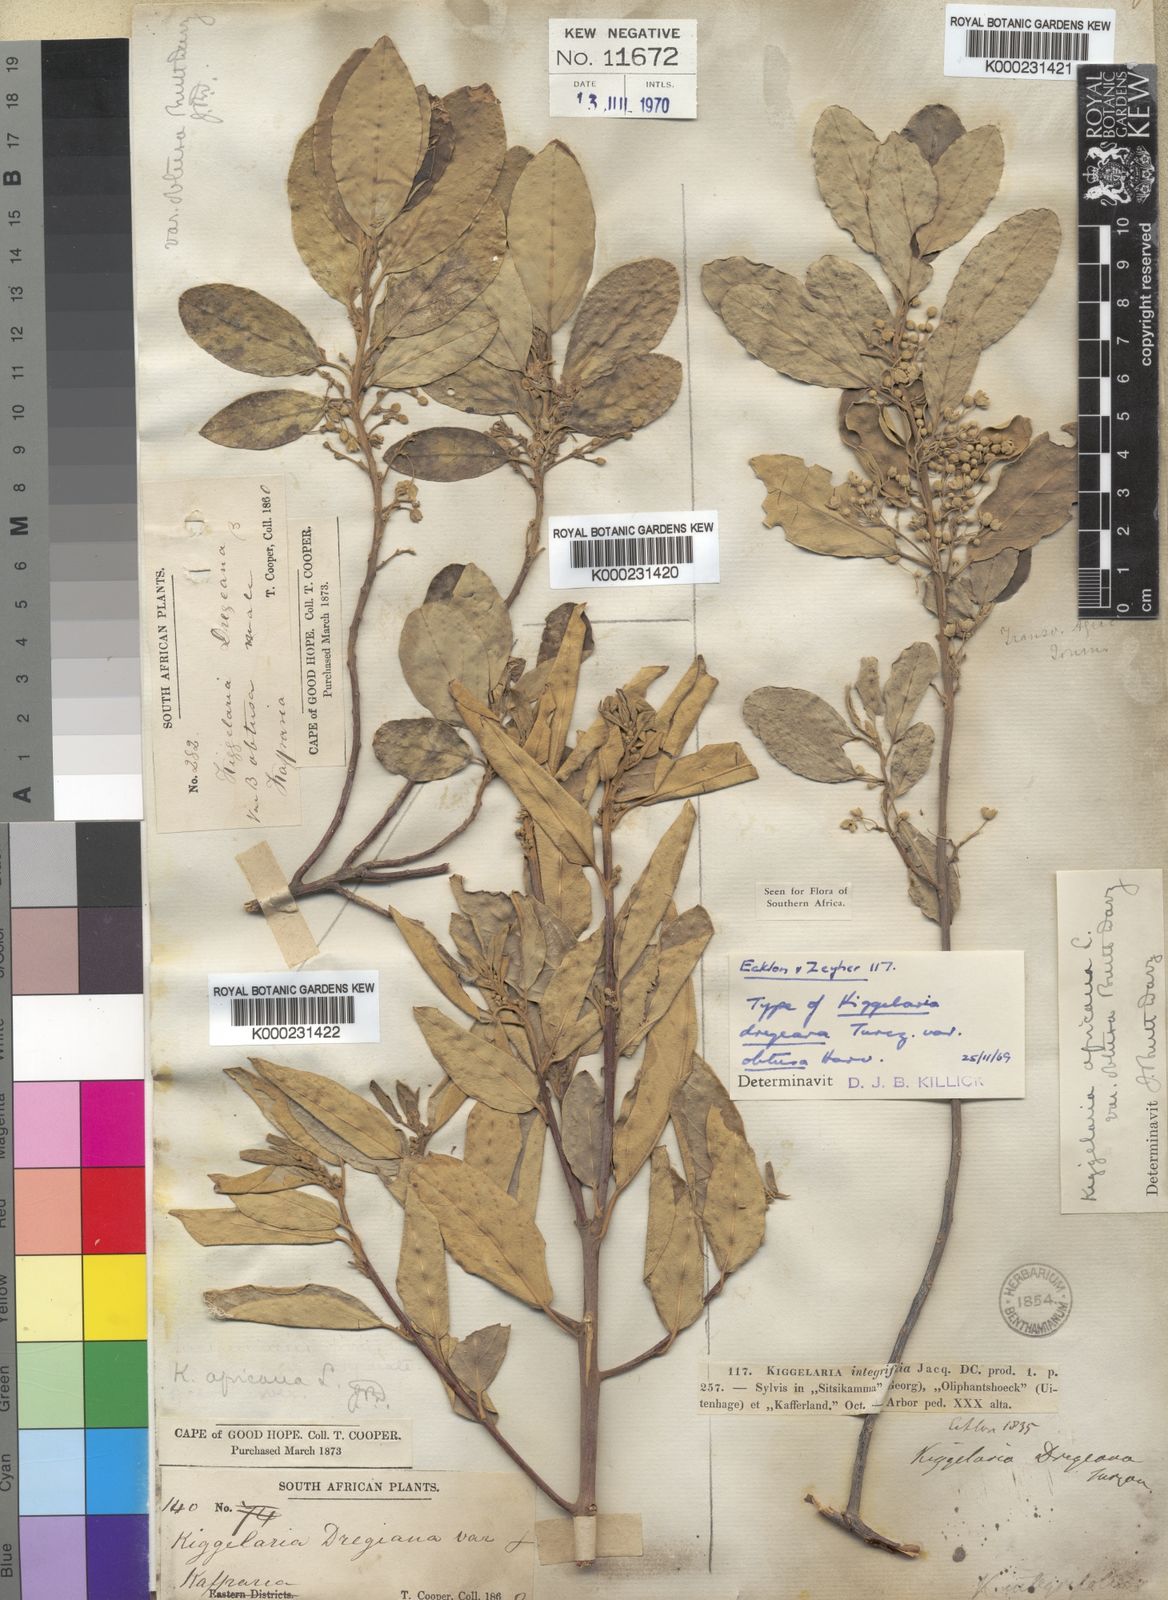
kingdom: Plantae
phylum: Tracheophyta
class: Magnoliopsida
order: Malpighiales
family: Achariaceae
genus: Kiggelaria
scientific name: Kiggelaria africana
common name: Wild peach
